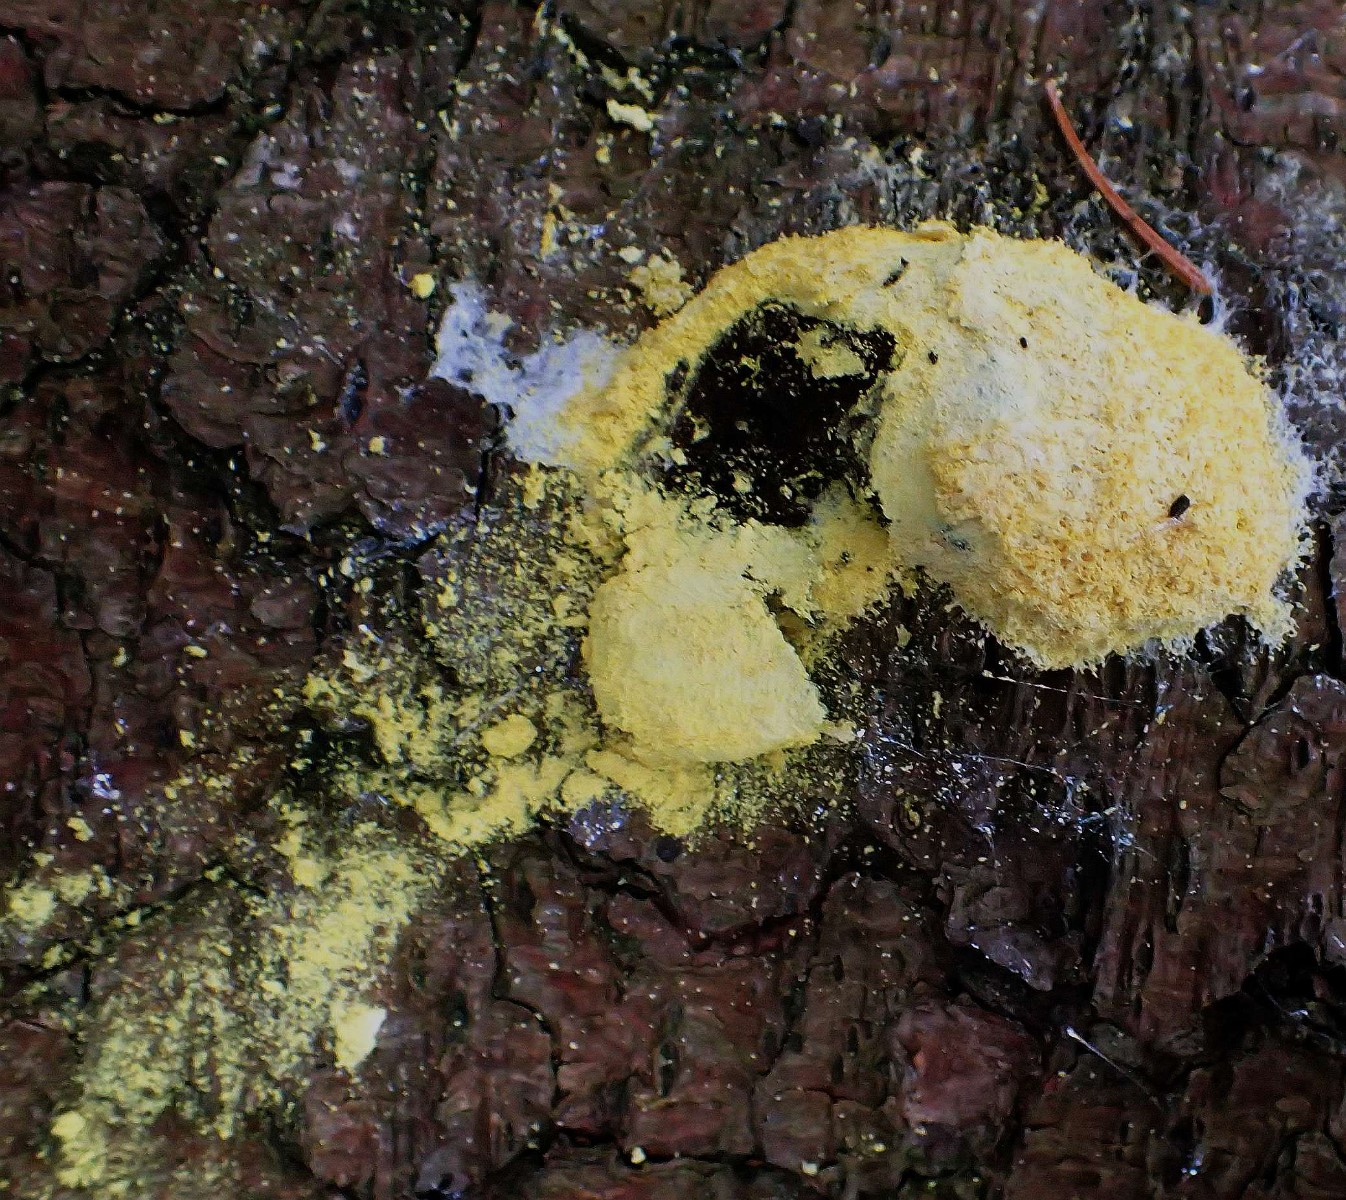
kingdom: Protozoa
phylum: Mycetozoa
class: Myxomycetes
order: Physarales
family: Physaraceae
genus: Fuligo
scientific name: Fuligo septica
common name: gul troldsmør
